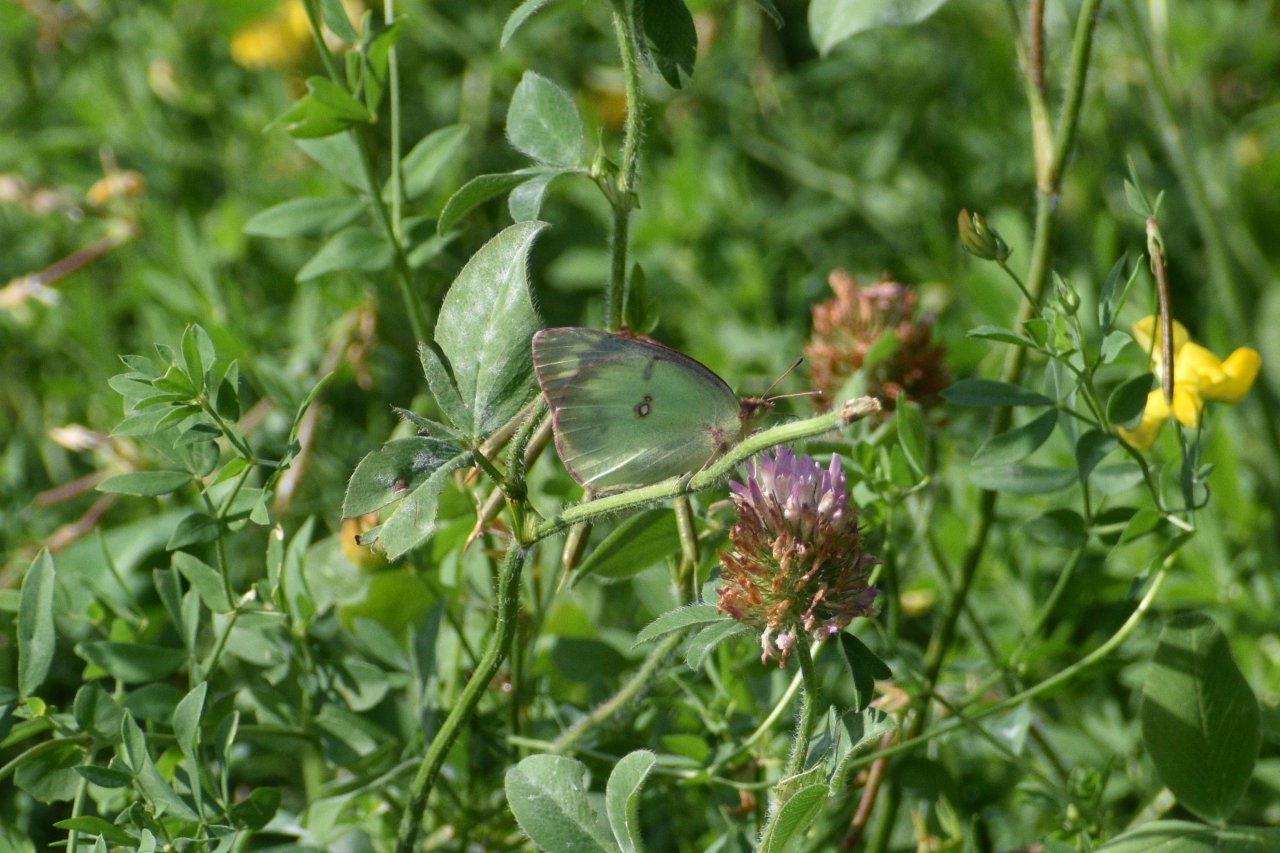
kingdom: Animalia
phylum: Arthropoda
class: Insecta
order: Lepidoptera
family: Pieridae
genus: Colias
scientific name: Colias philodice
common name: Clouded Sulphur
